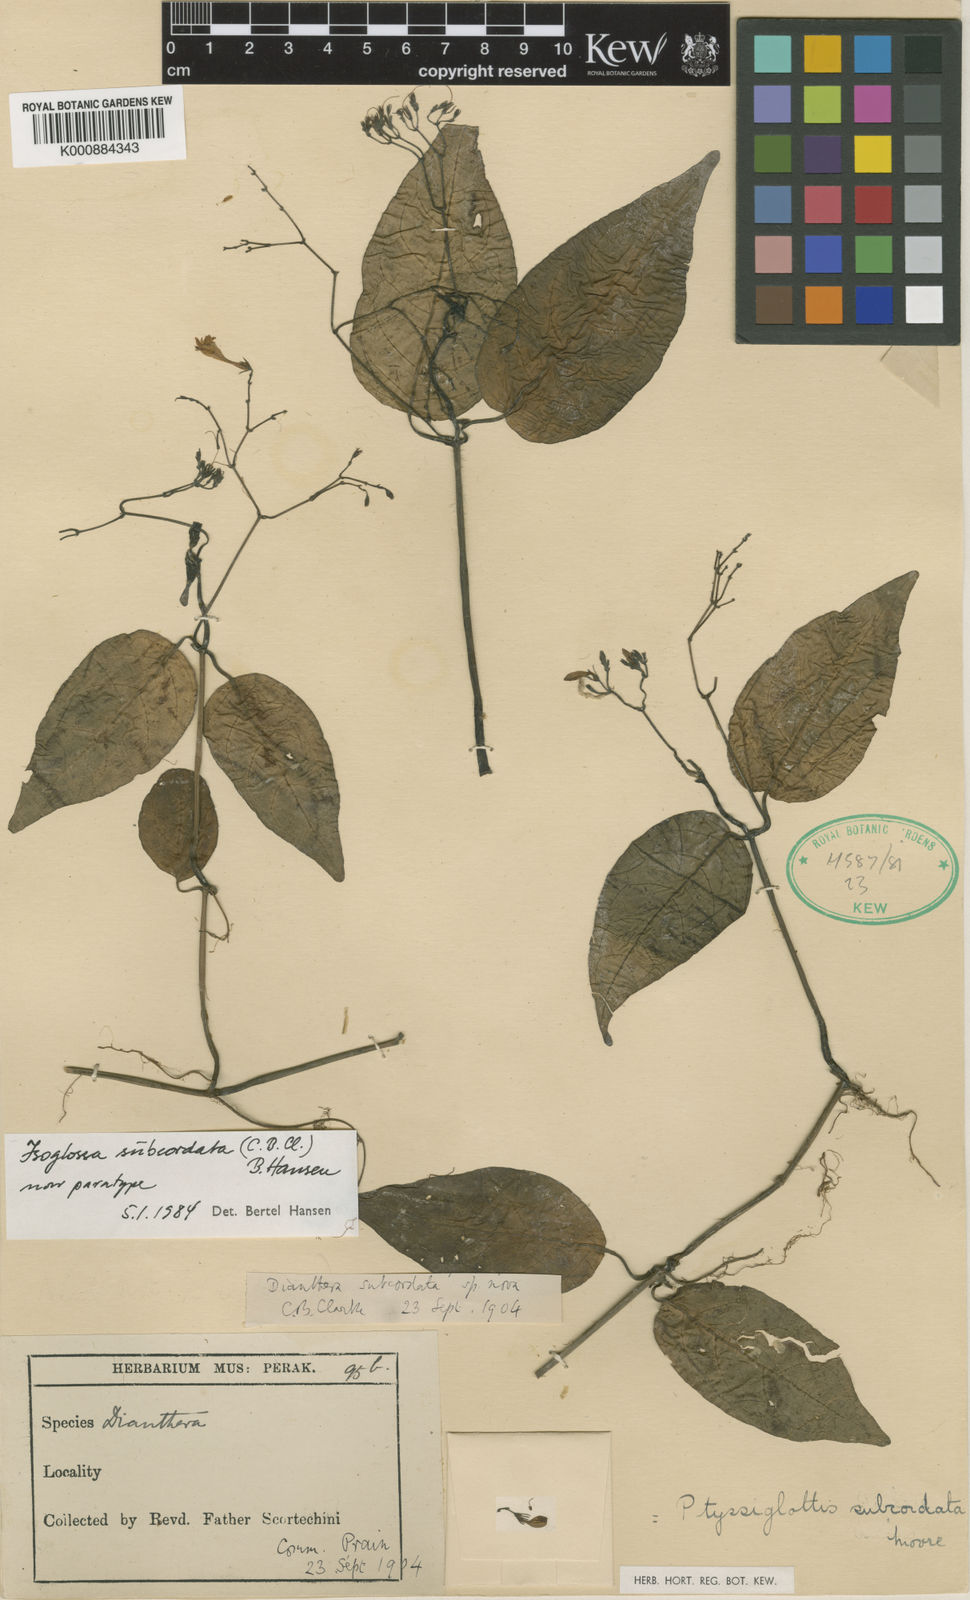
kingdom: Plantae
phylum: Tracheophyta
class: Magnoliopsida
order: Lamiales
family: Acanthaceae
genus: Ptyssiglottis
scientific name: Ptyssiglottis subcordata
